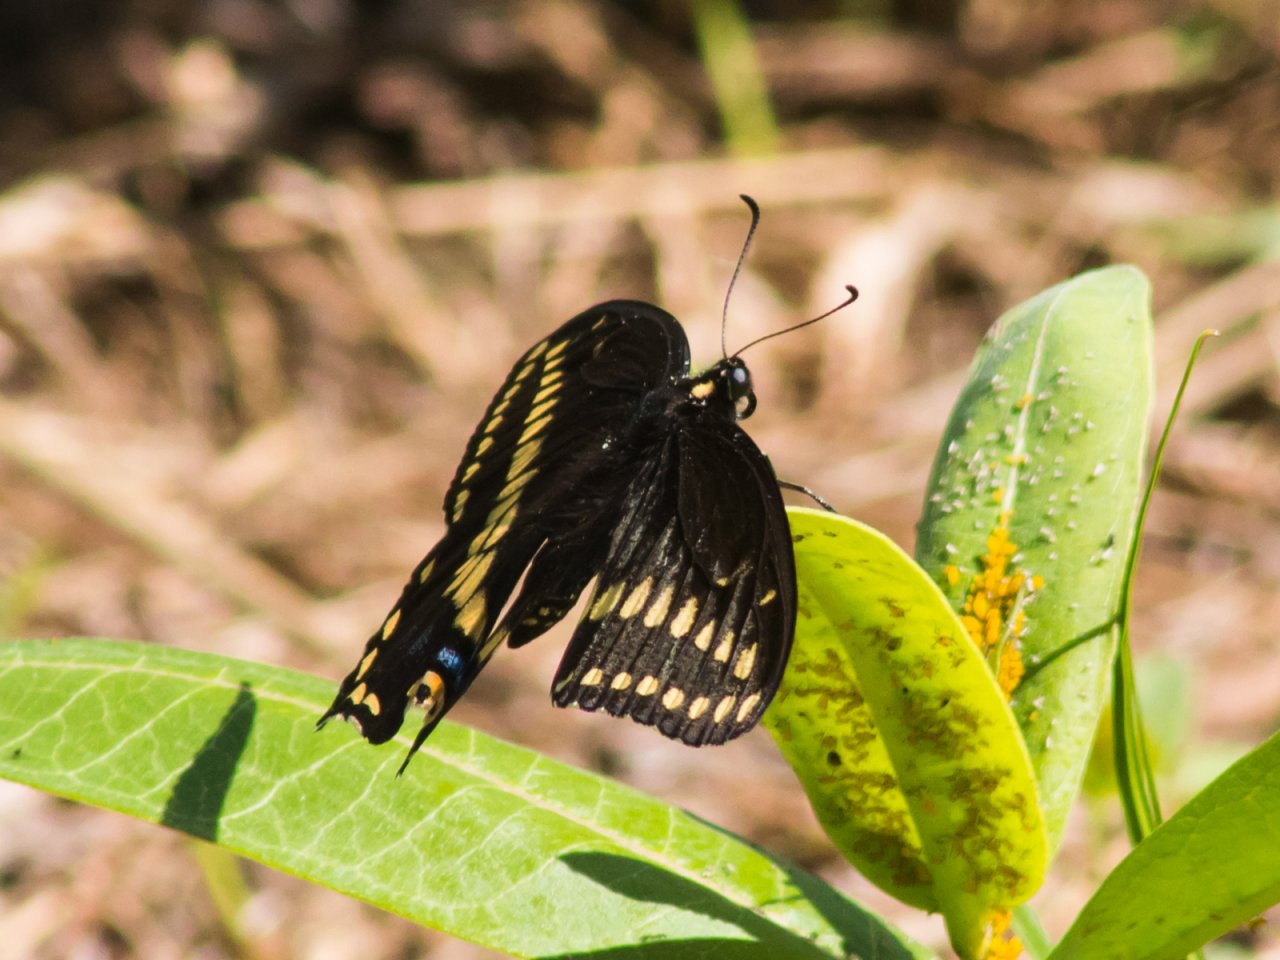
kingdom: Animalia
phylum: Arthropoda
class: Insecta
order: Lepidoptera
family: Papilionidae
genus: Papilio
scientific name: Papilio polyxenes
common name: Black Swallowtail
